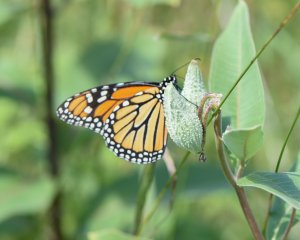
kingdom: Animalia
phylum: Arthropoda
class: Insecta
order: Lepidoptera
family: Nymphalidae
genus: Danaus
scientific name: Danaus plexippus
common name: Monarch
